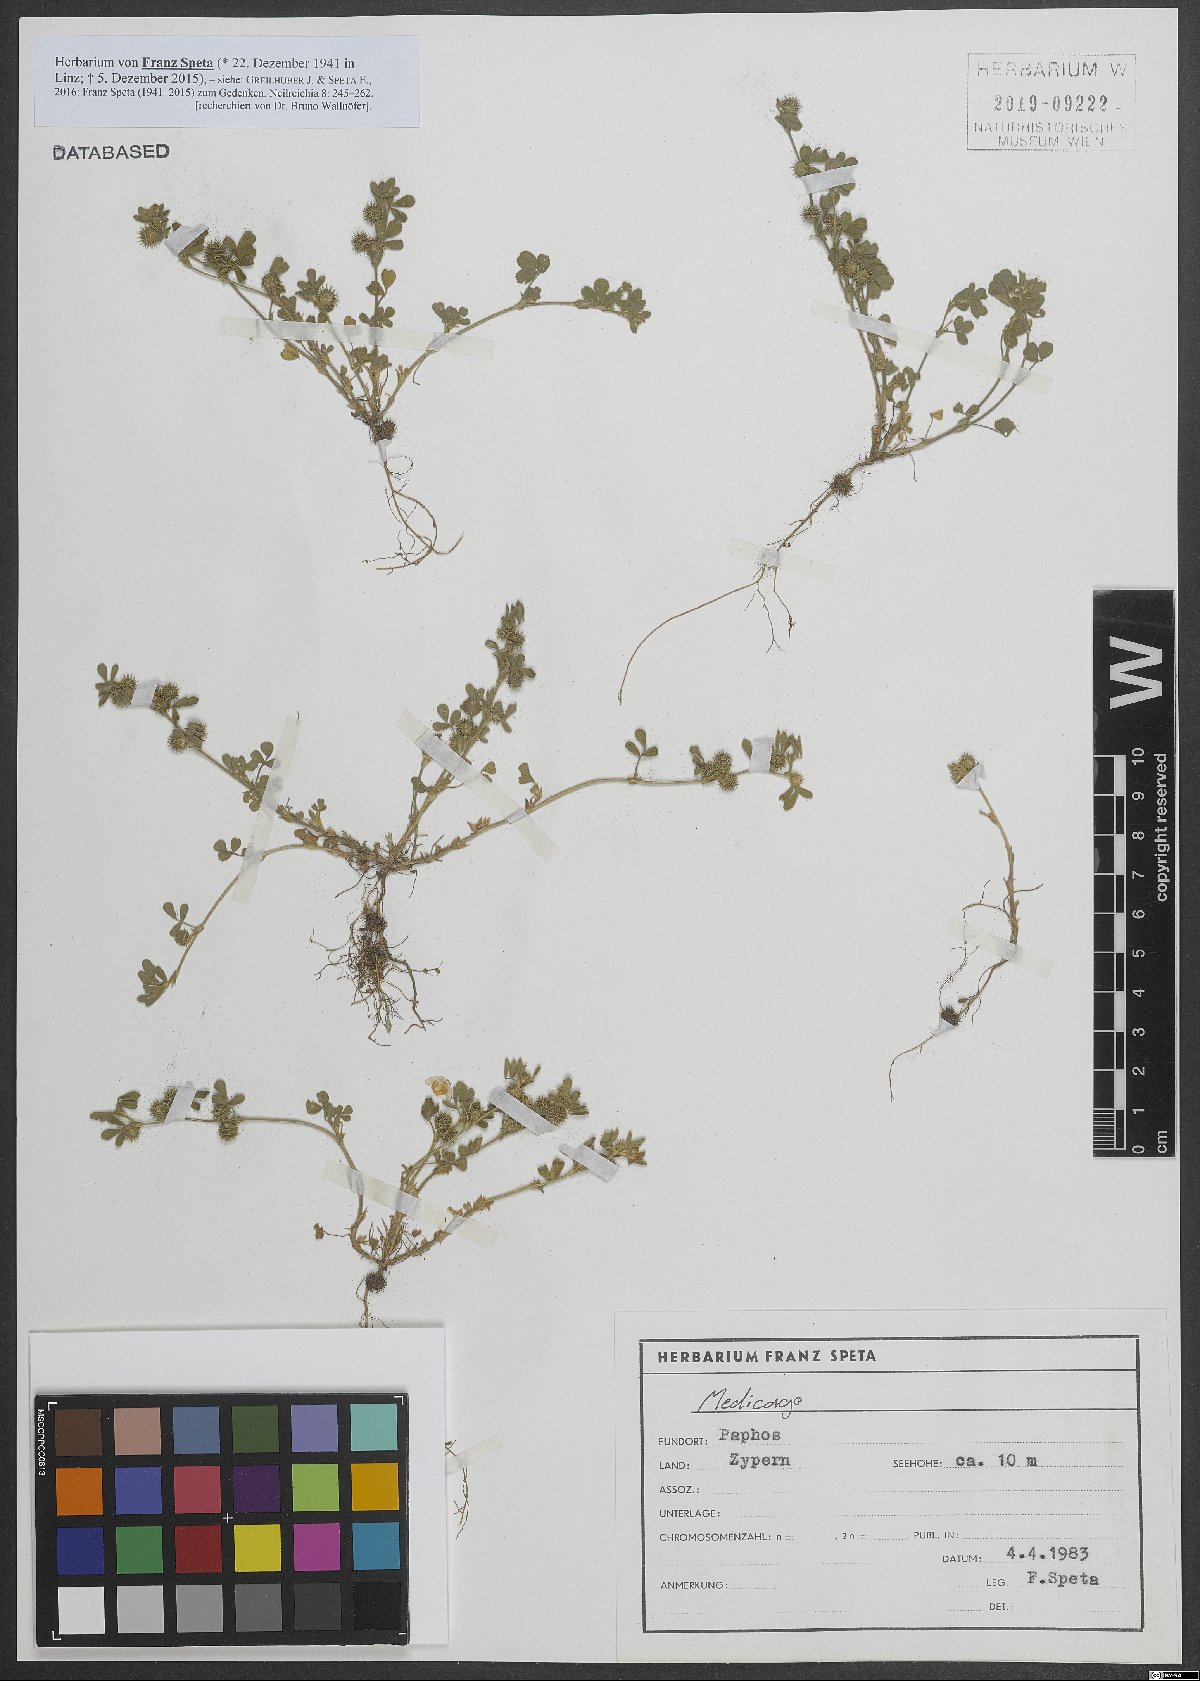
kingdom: Plantae
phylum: Tracheophyta
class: Magnoliopsida
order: Fabales
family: Fabaceae
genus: Medicago
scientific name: Medicago minima
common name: Little bur-clover
